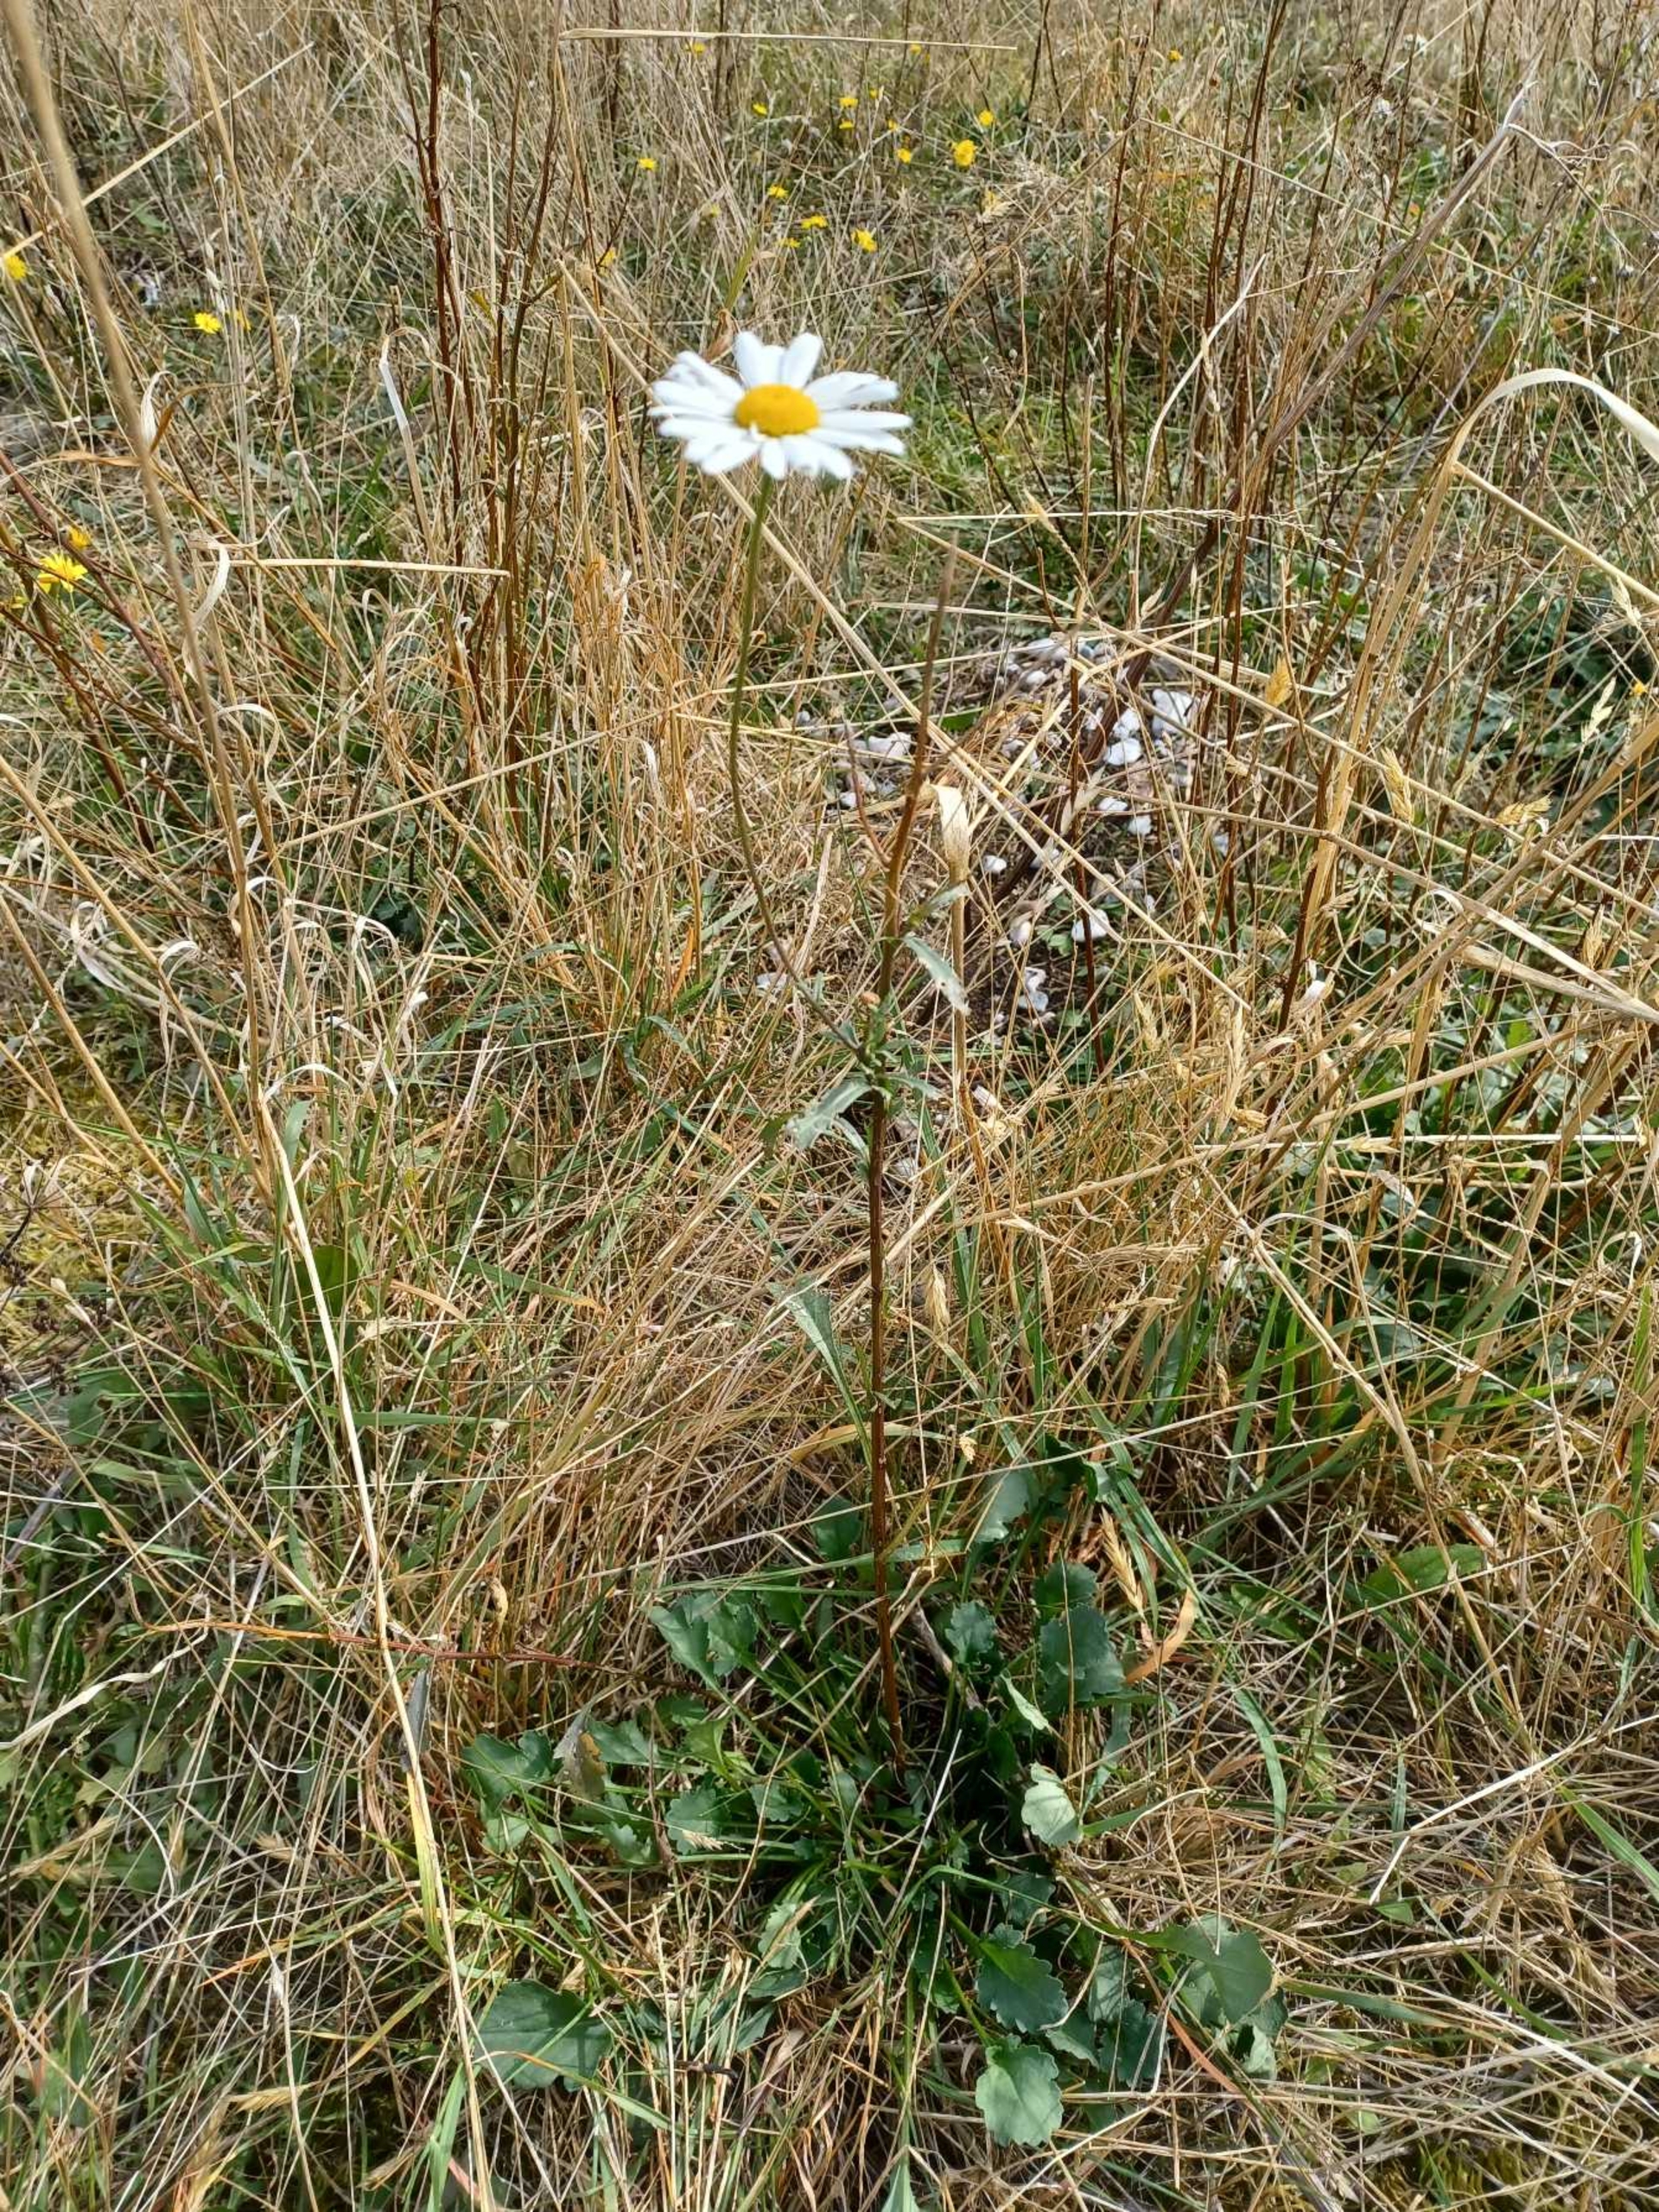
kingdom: Plantae
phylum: Tracheophyta
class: Magnoliopsida
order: Asterales
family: Asteraceae
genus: Leucanthemum
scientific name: Leucanthemum vulgare
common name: Hvid okseøje
